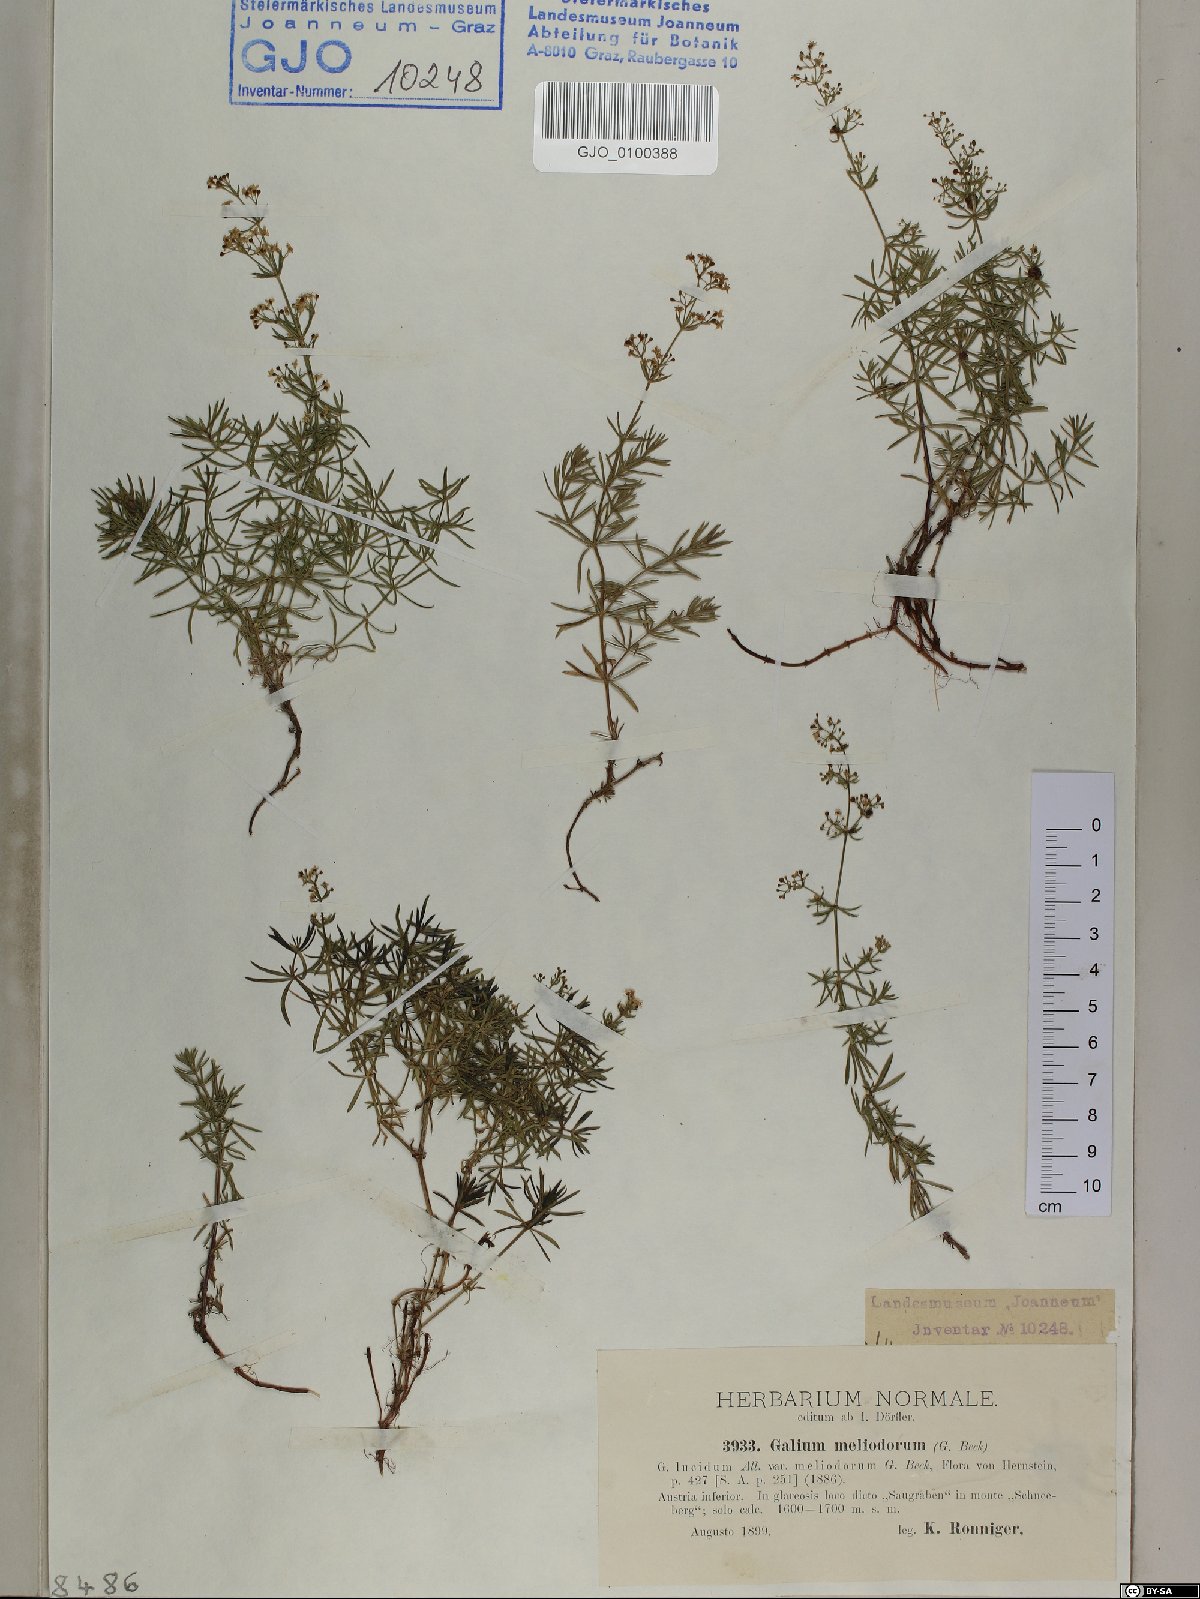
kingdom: Plantae
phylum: Tracheophyta
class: Magnoliopsida
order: Gentianales
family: Rubiaceae
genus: Galium
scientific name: Galium meliodorum
